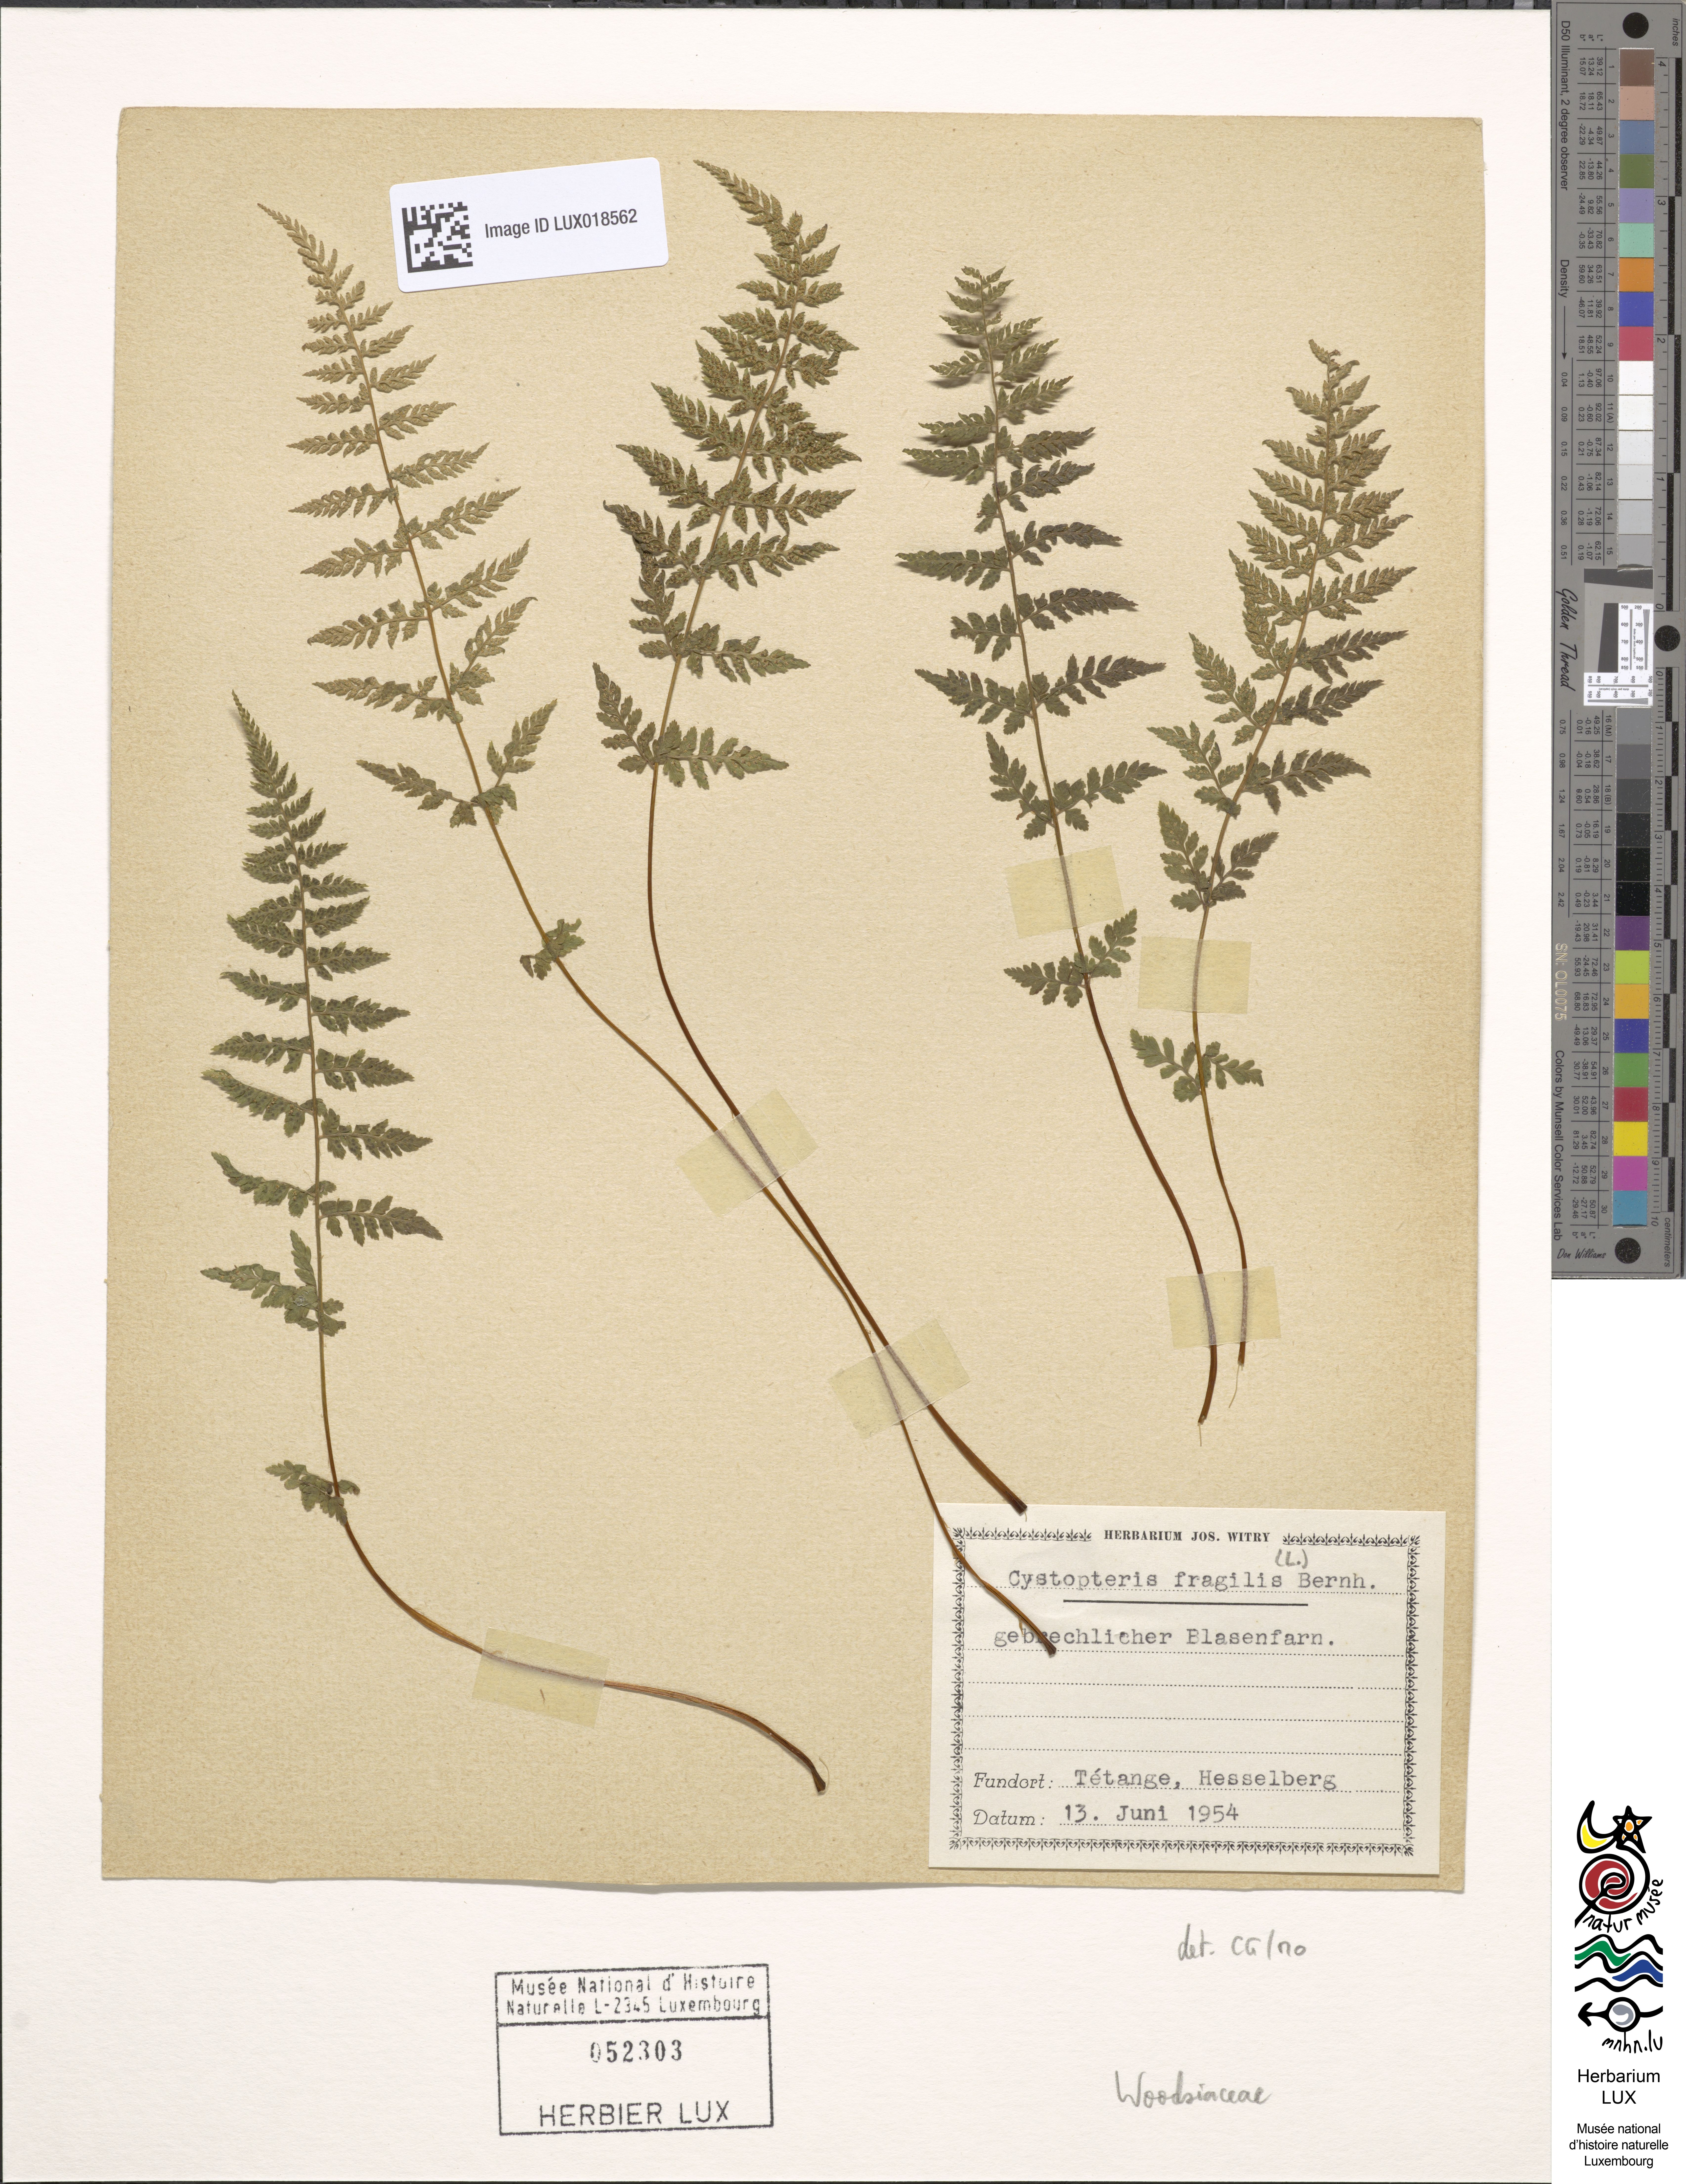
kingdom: Plantae
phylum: Tracheophyta
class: Polypodiopsida
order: Polypodiales
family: Cystopteridaceae
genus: Cystopteris
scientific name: Cystopteris fragilis
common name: Brittle bladder fern
